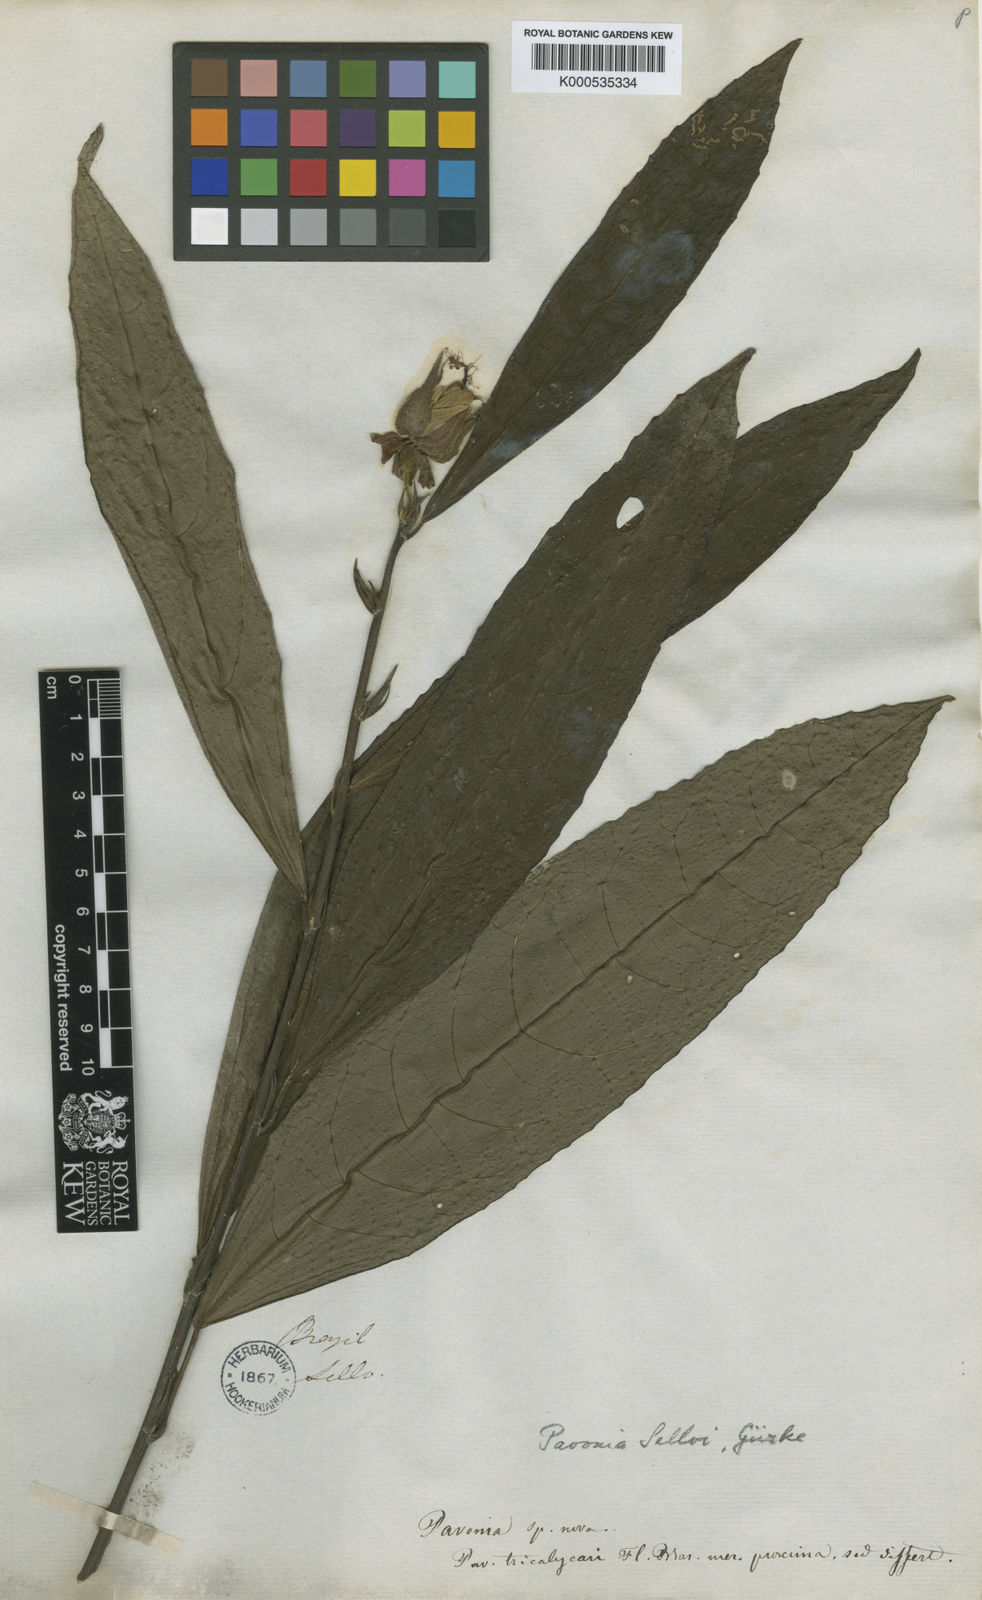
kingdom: Plantae
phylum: Tracheophyta
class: Magnoliopsida
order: Malvales
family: Malvaceae
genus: Pavonia
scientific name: Pavonia tricalycaris
